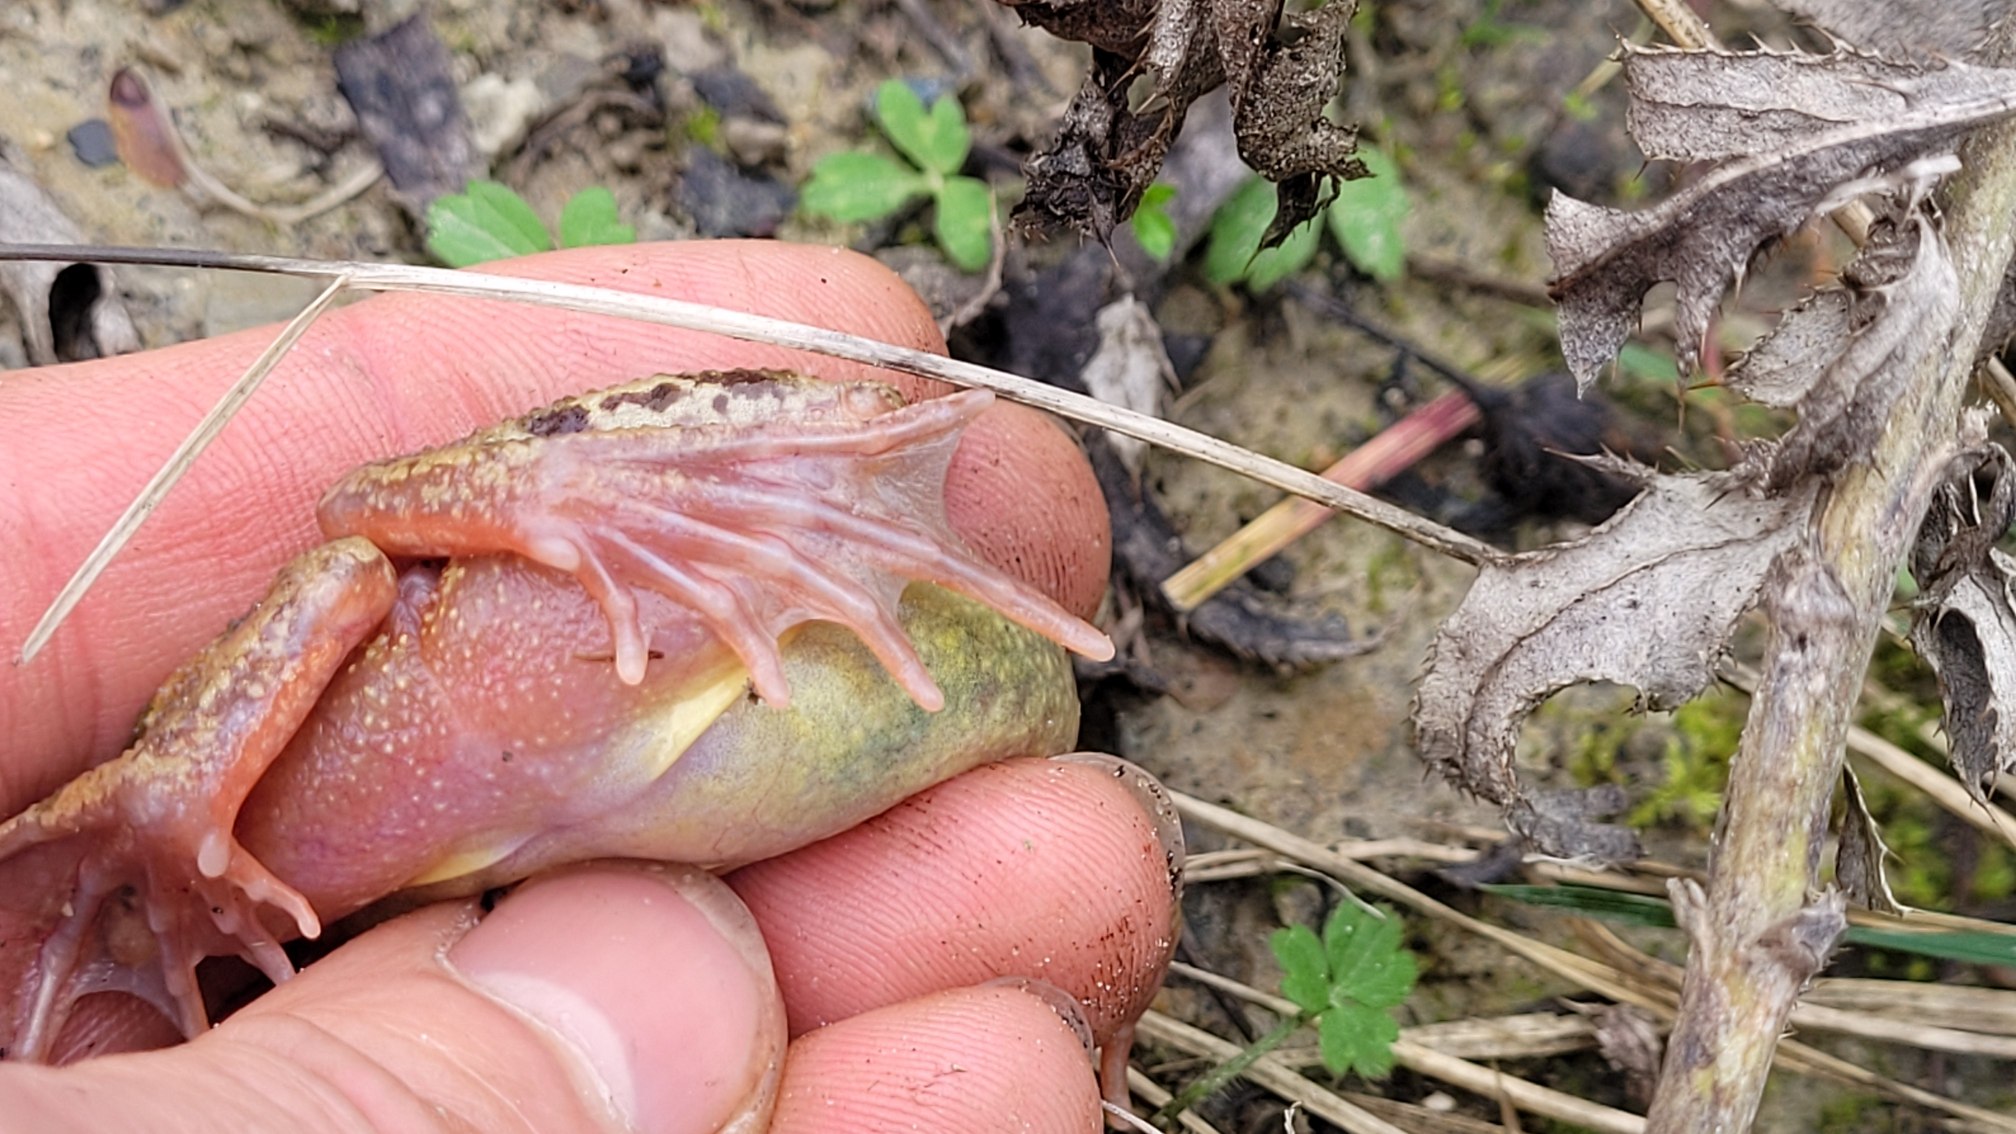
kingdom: Animalia
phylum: Chordata
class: Amphibia
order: Anura
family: Ranidae
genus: Rana
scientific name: Rana temporaria
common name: Butsnudet frø
